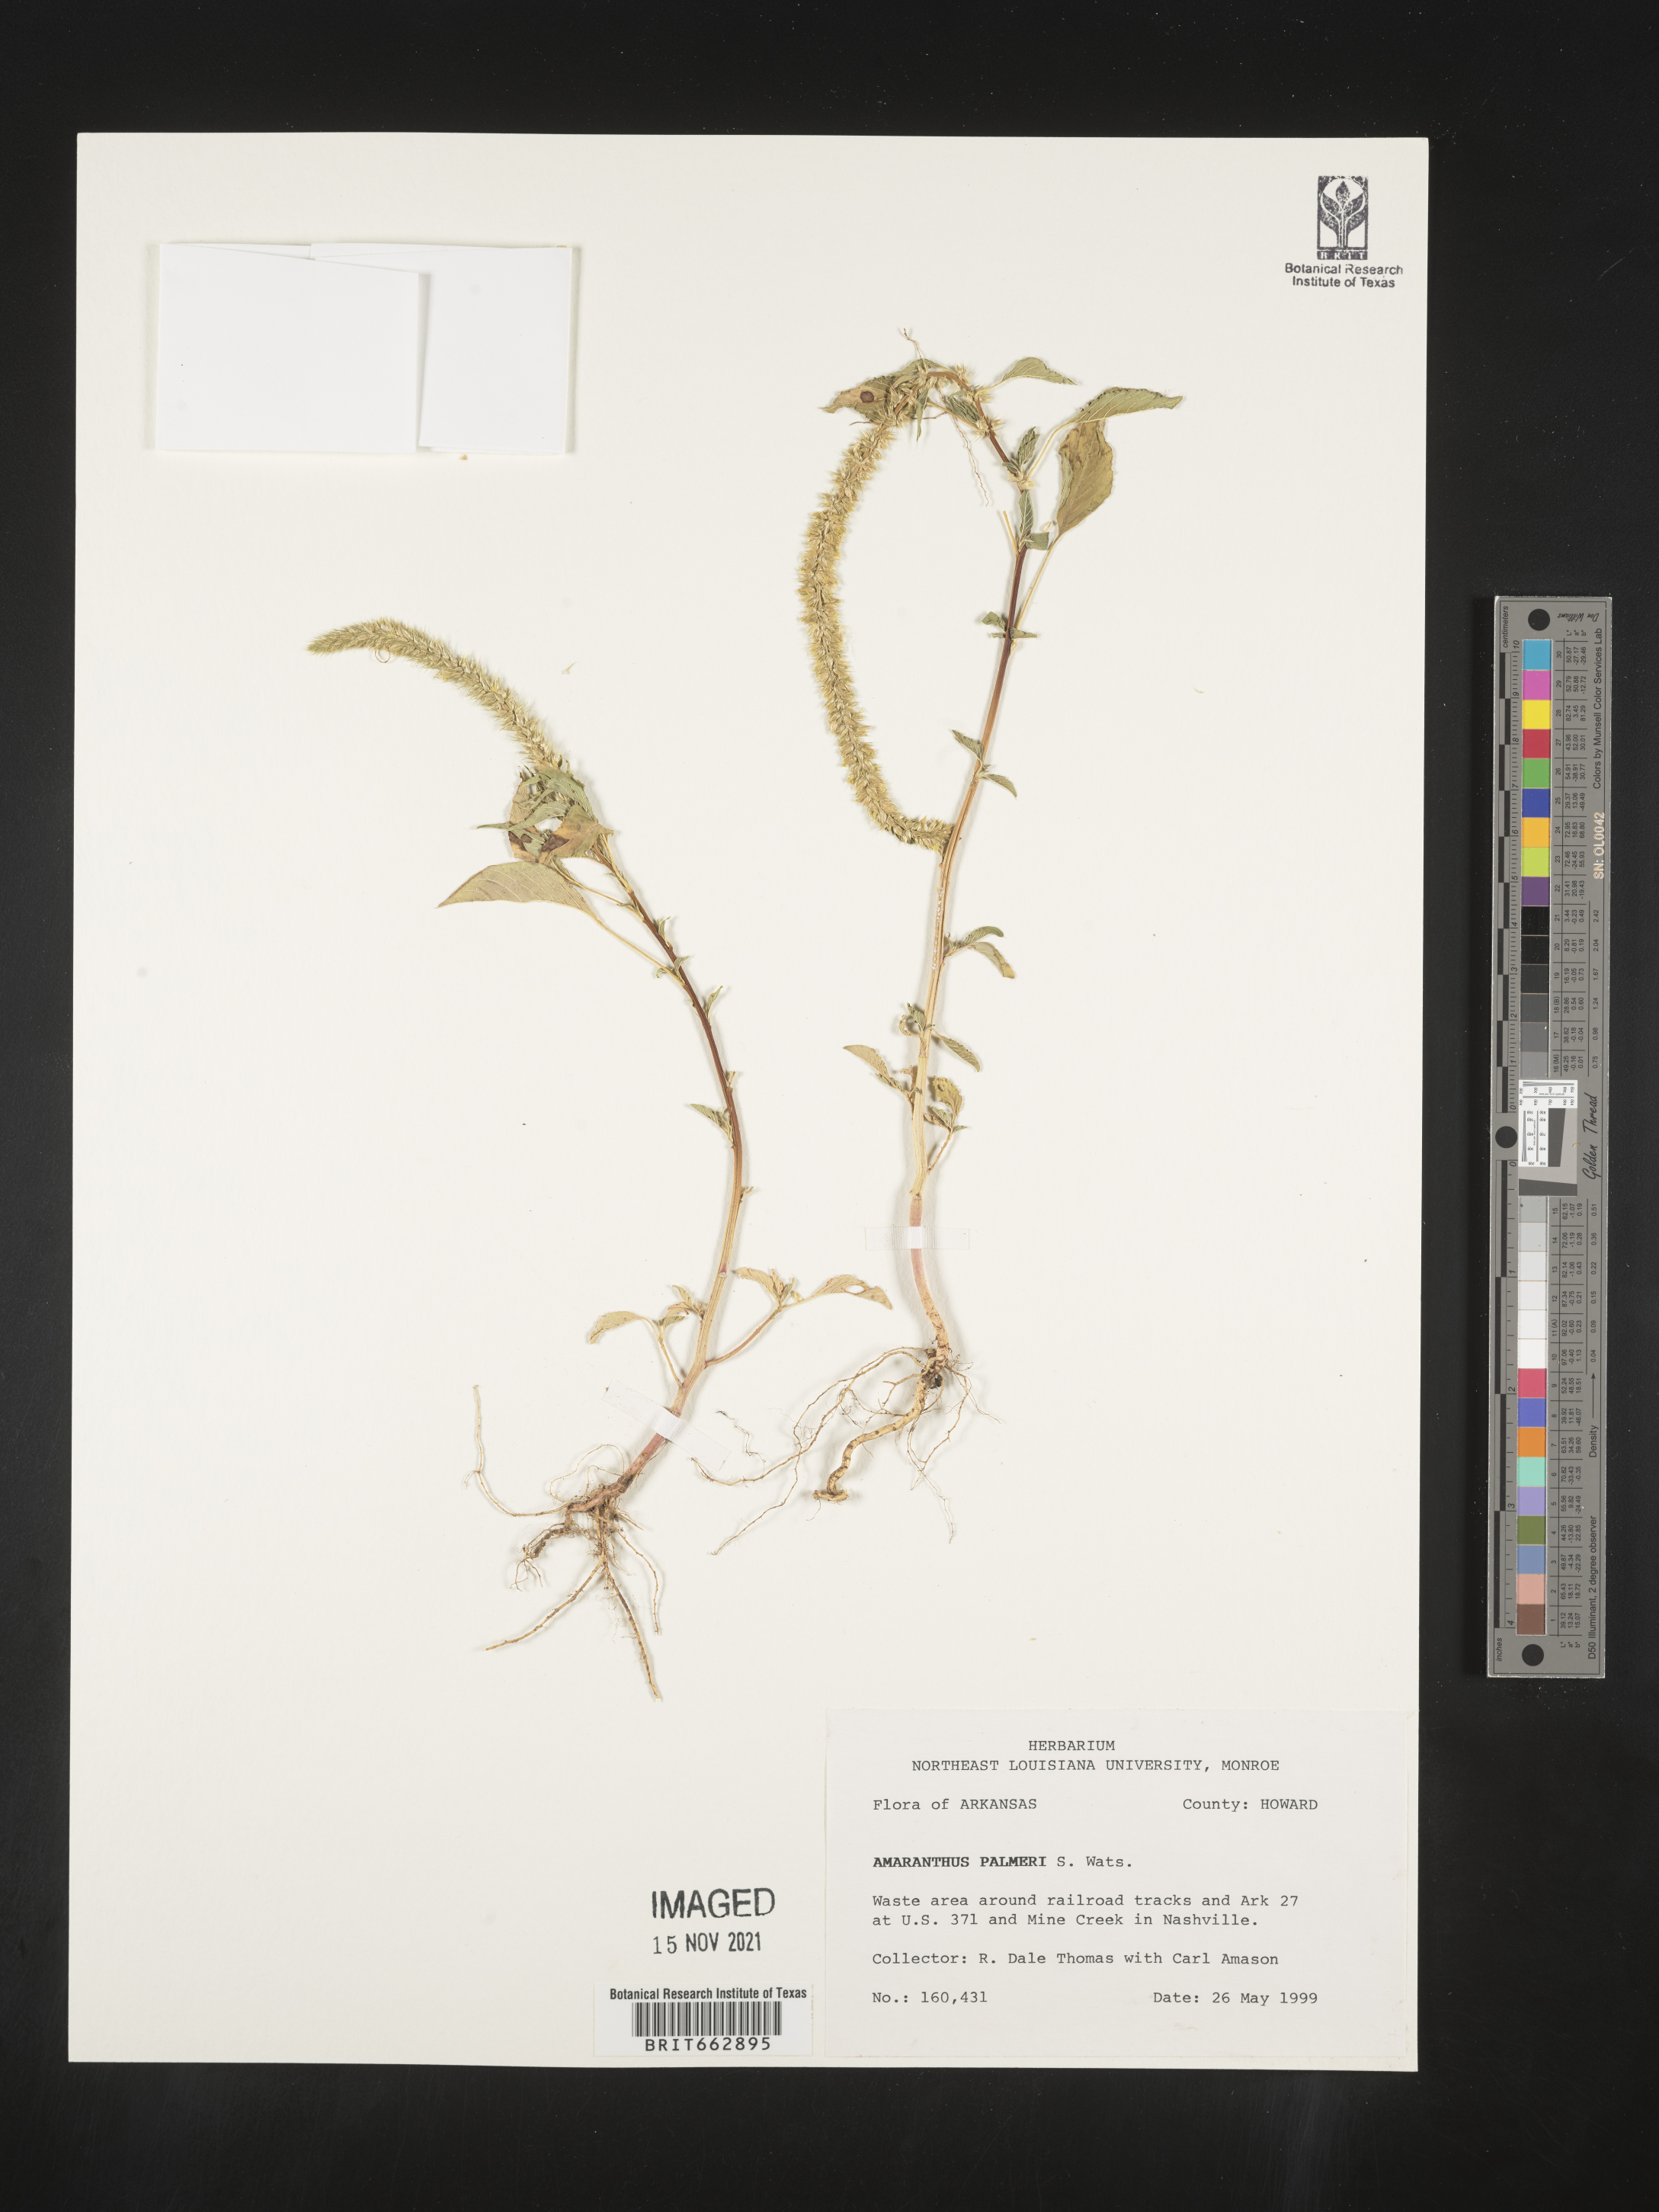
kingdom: Plantae
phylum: Tracheophyta
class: Magnoliopsida
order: Caryophyllales
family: Amaranthaceae
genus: Amaranthus
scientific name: Amaranthus palmeri
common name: Dioecious amaranth
